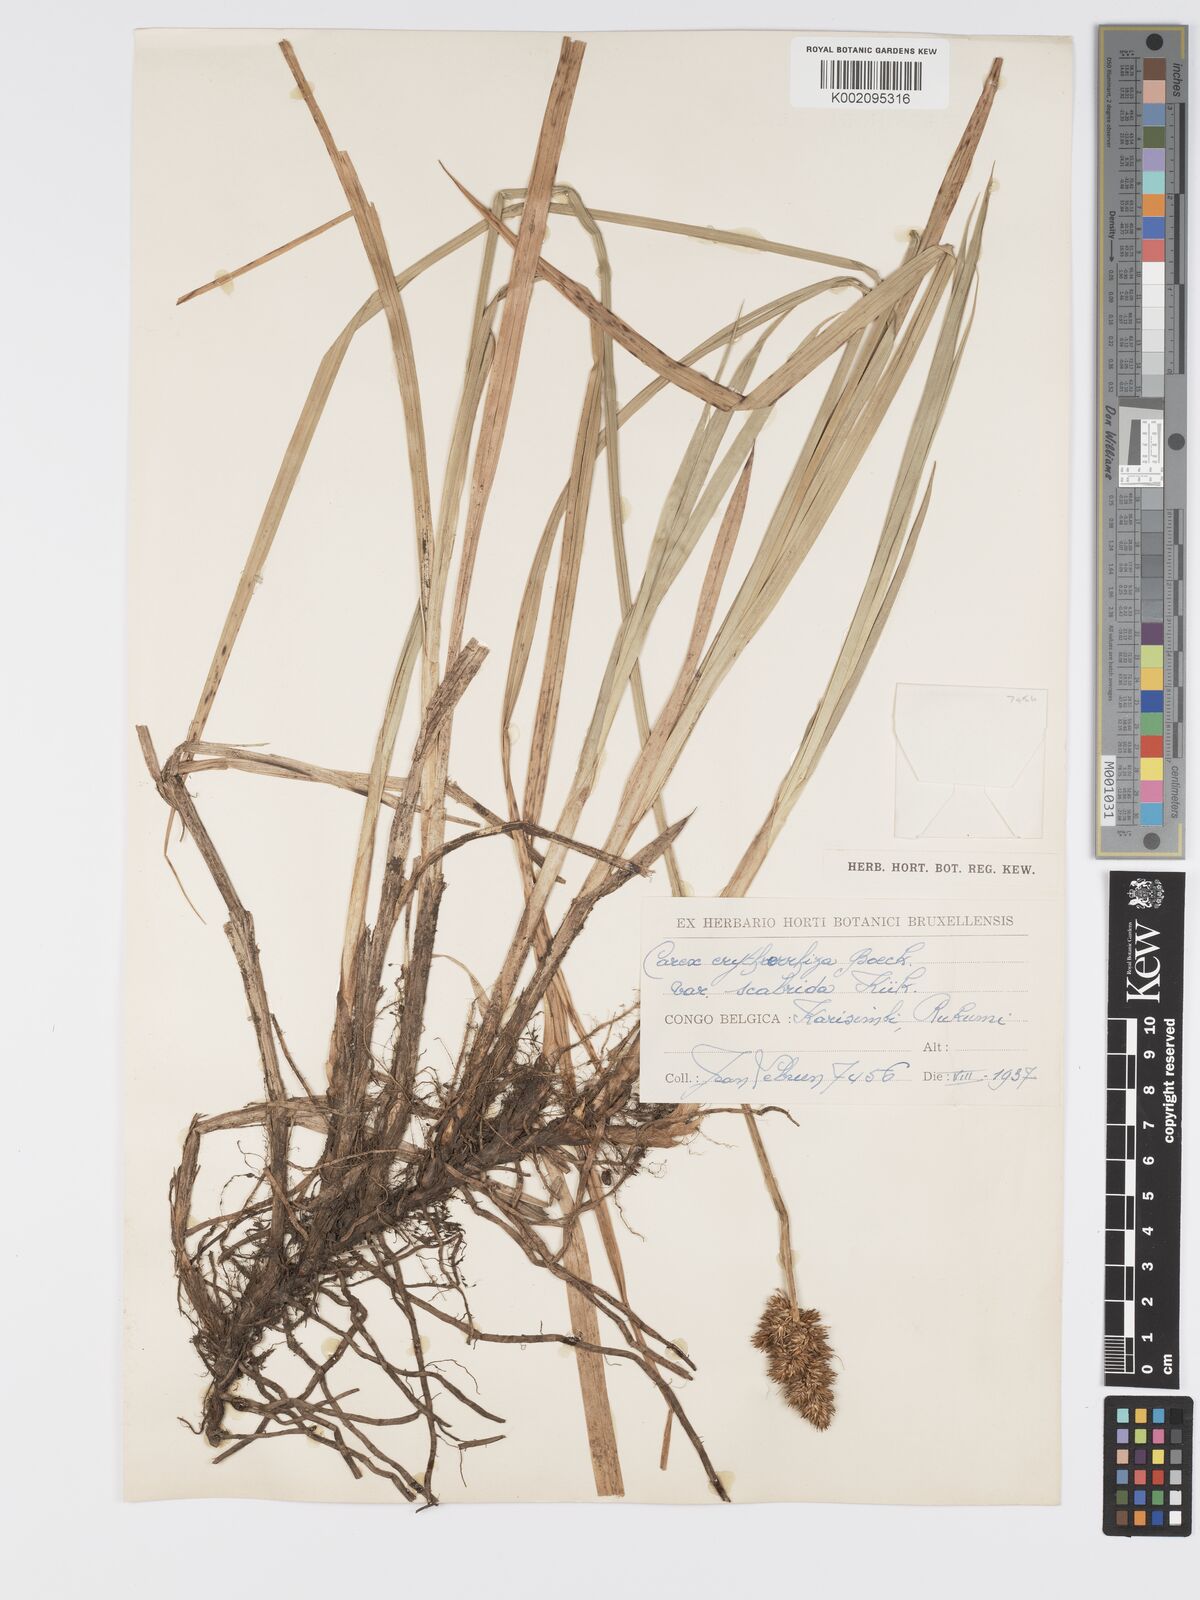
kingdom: Plantae
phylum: Tracheophyta
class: Liliopsida
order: Poales
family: Cyperaceae
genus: Carex
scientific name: Carex lycurus
